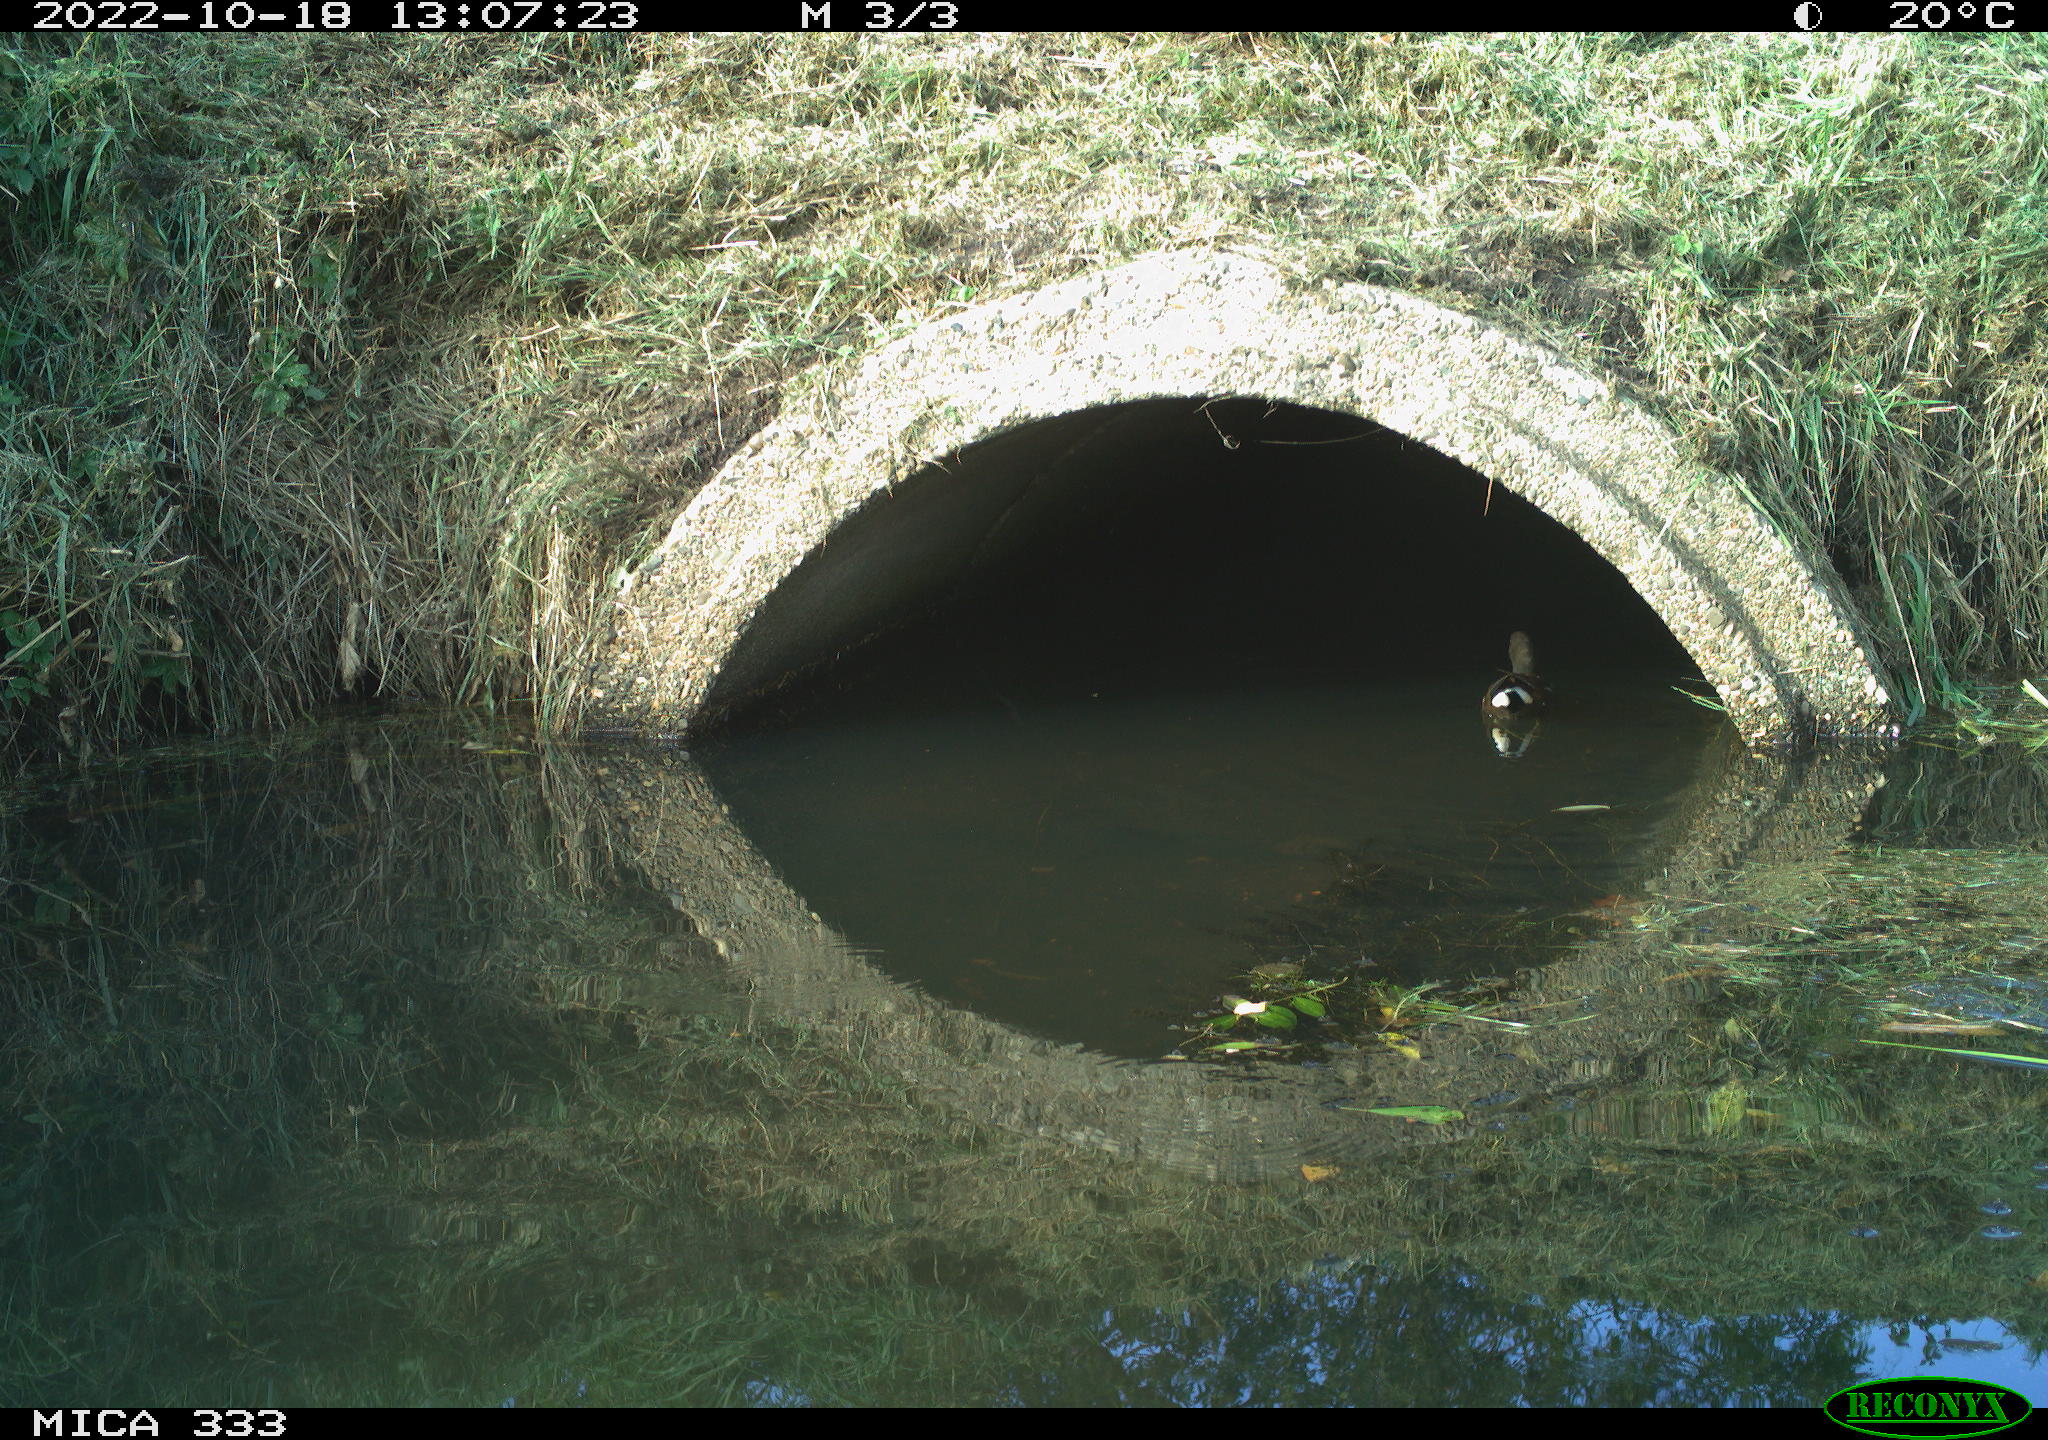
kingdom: Animalia
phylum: Chordata
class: Aves
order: Gruiformes
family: Rallidae
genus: Gallinula
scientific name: Gallinula chloropus
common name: Common moorhen
